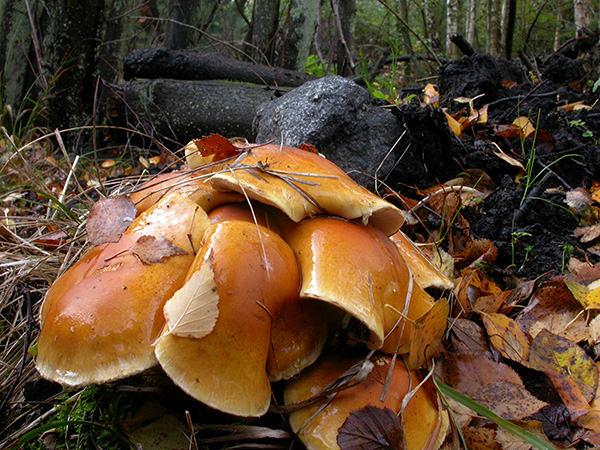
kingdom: Fungi
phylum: Basidiomycota
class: Agaricomycetes
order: Agaricales
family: Cortinariaceae
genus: Phlegmacium
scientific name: Phlegmacium triumphans
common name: gulbæltet slørhat
